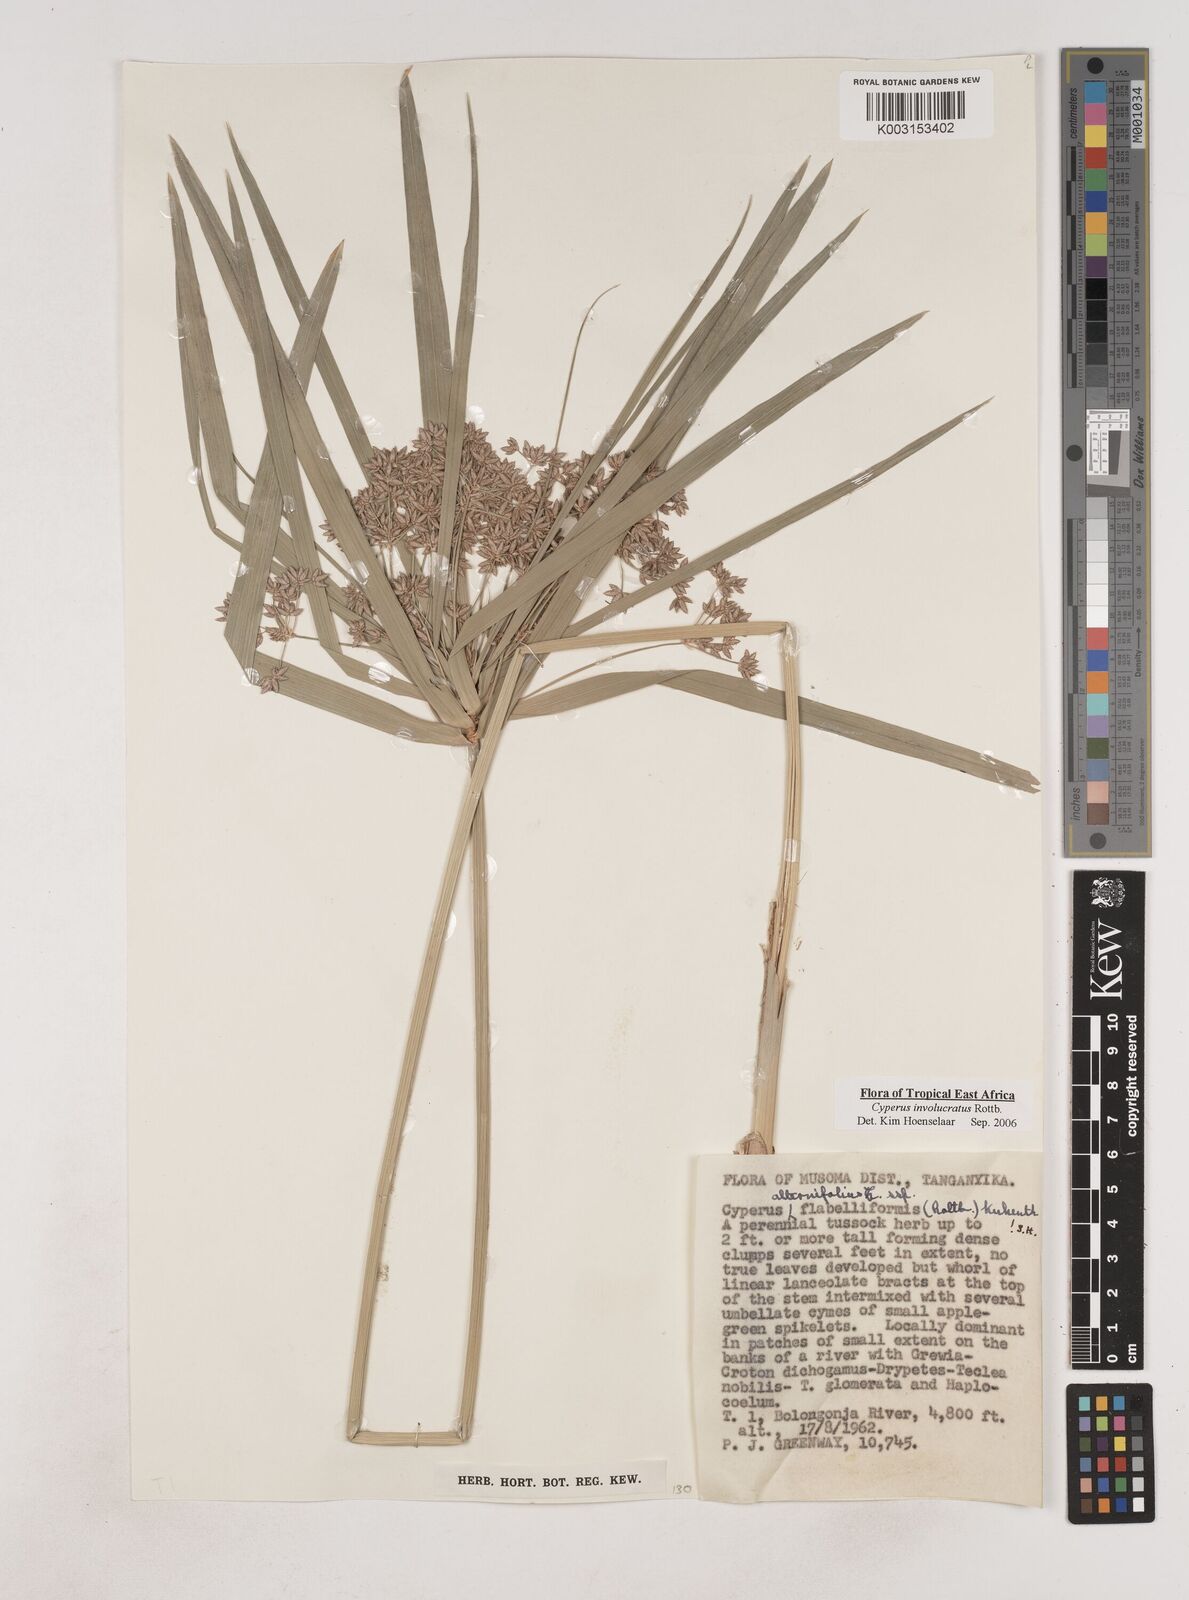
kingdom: Plantae
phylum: Tracheophyta
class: Liliopsida
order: Poales
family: Cyperaceae
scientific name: Cyperaceae
